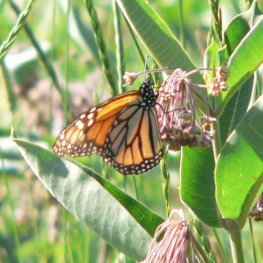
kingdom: Animalia
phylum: Arthropoda
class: Insecta
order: Lepidoptera
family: Nymphalidae
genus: Danaus
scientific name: Danaus plexippus
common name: Monarch
